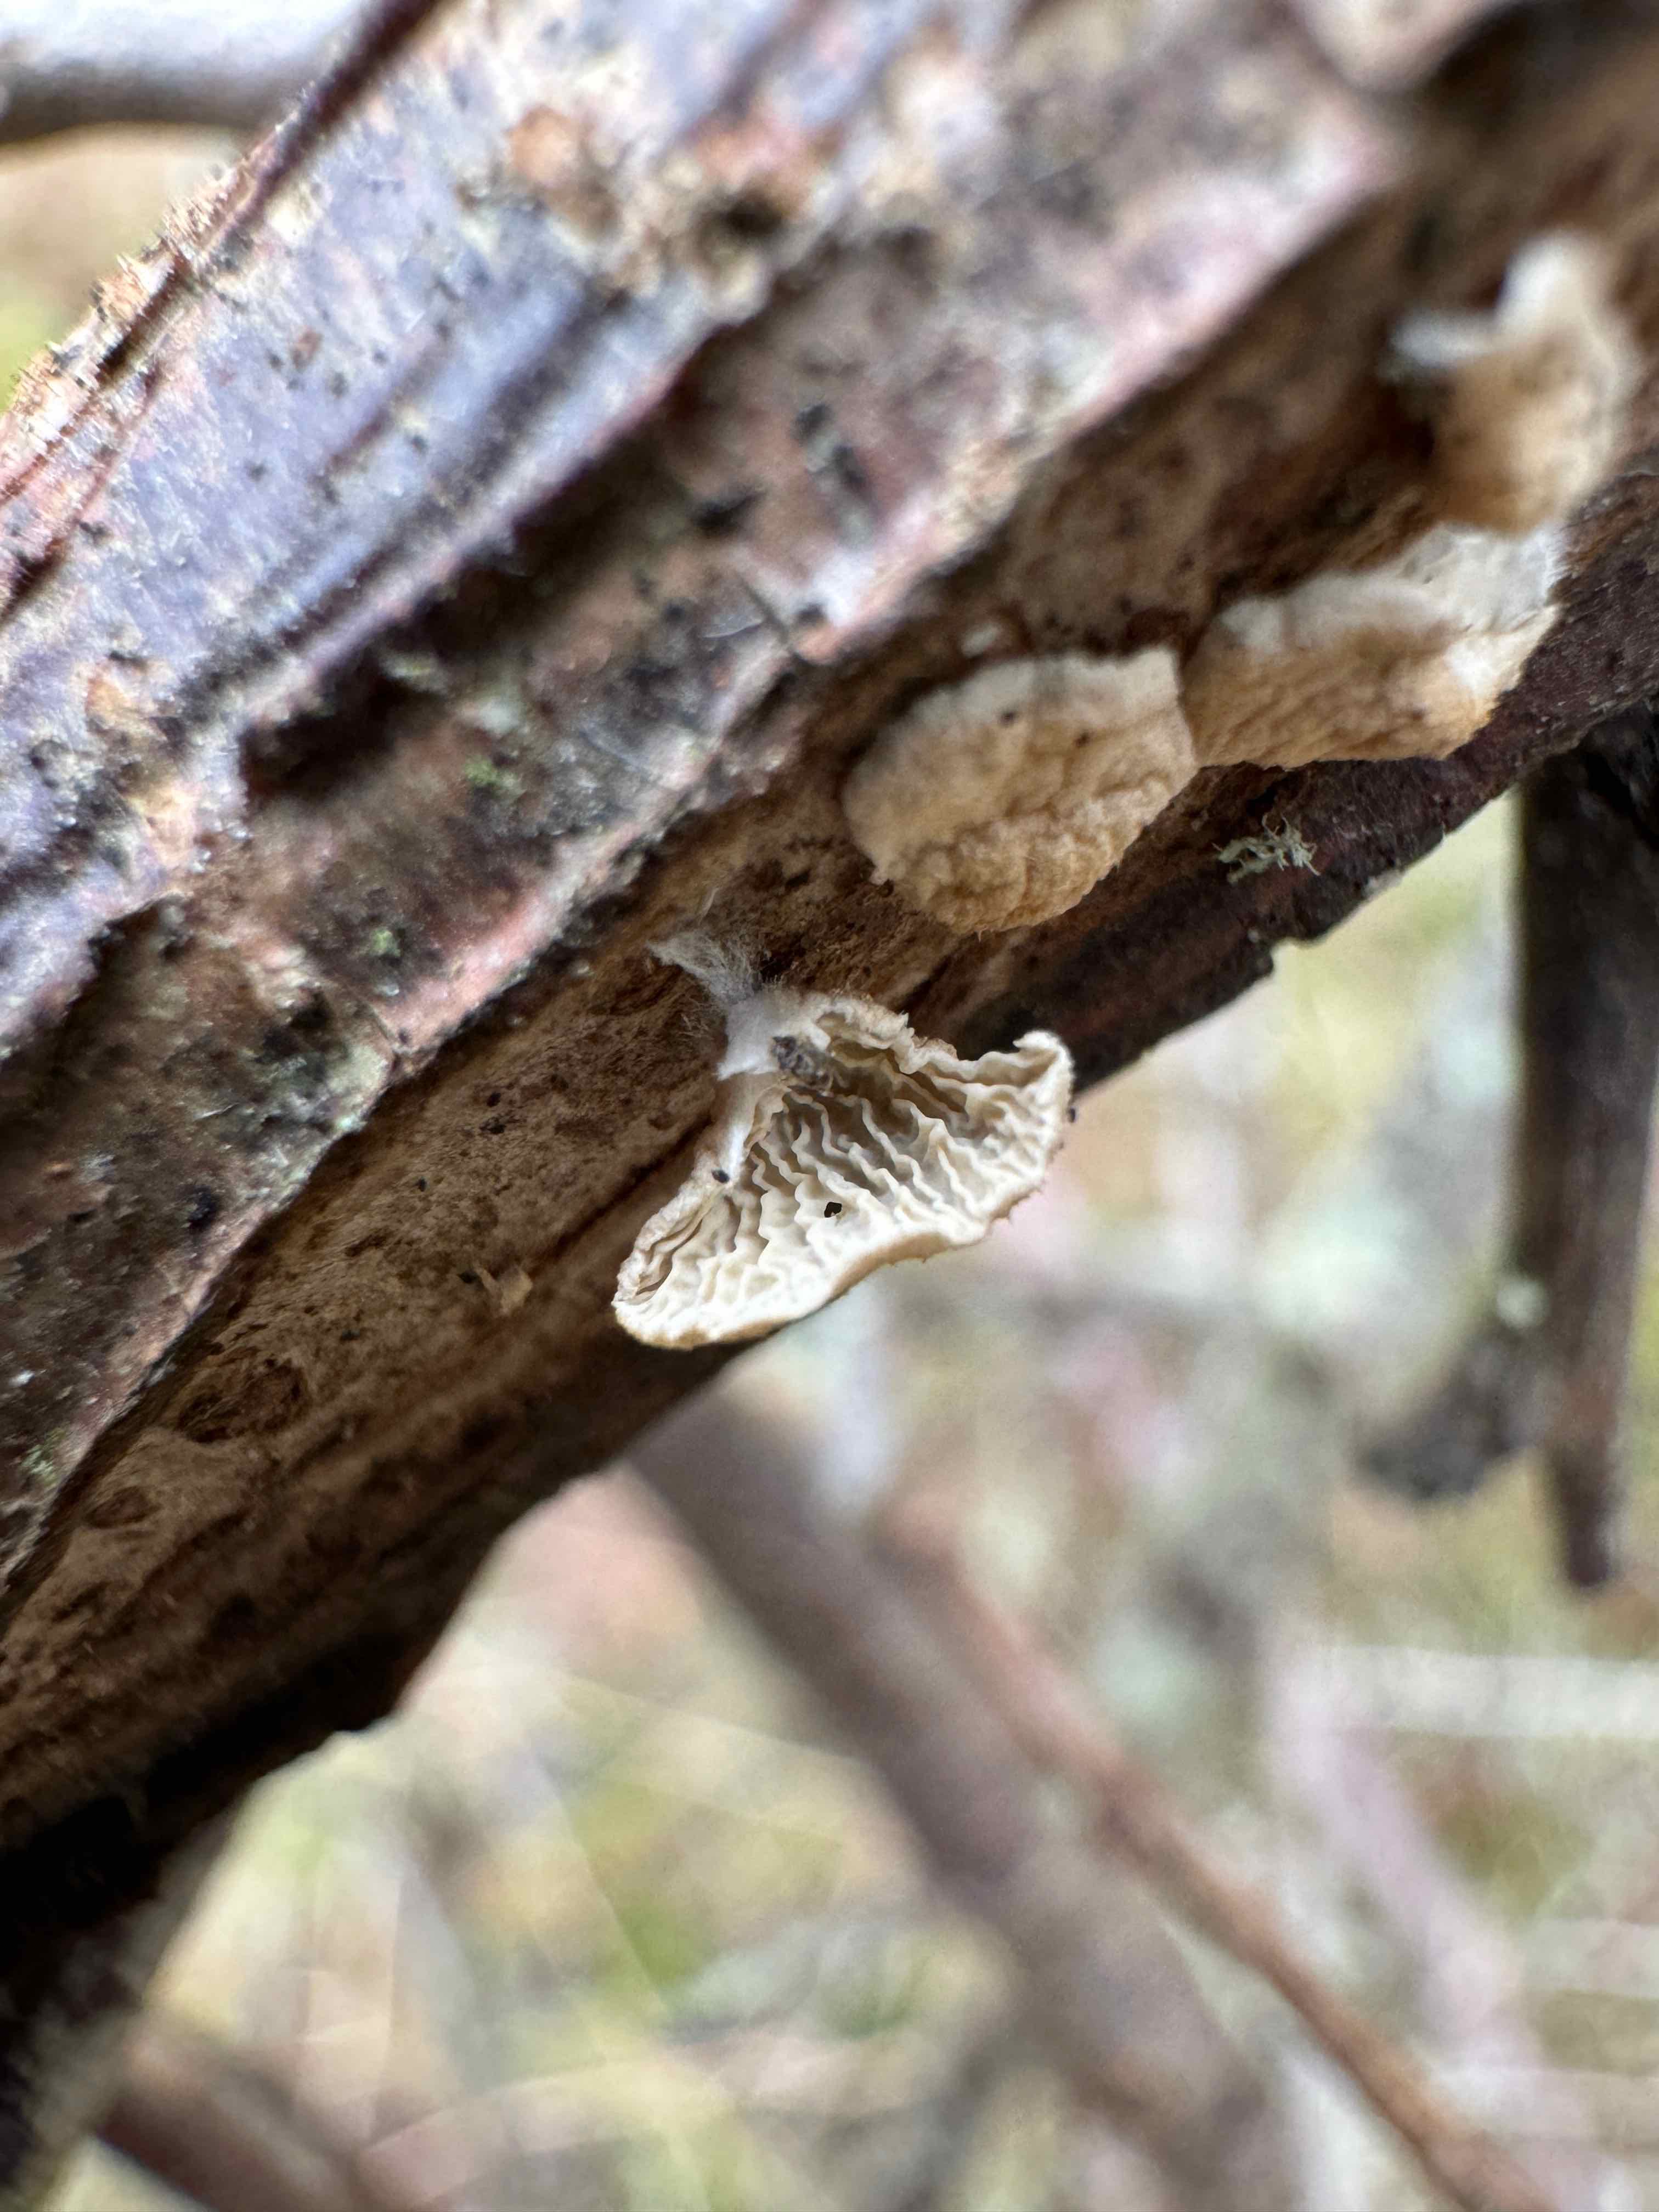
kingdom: Fungi
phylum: Basidiomycota
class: Agaricomycetes
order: Amylocorticiales
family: Amylocorticiaceae
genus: Plicaturopsis
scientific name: Plicaturopsis crispa
